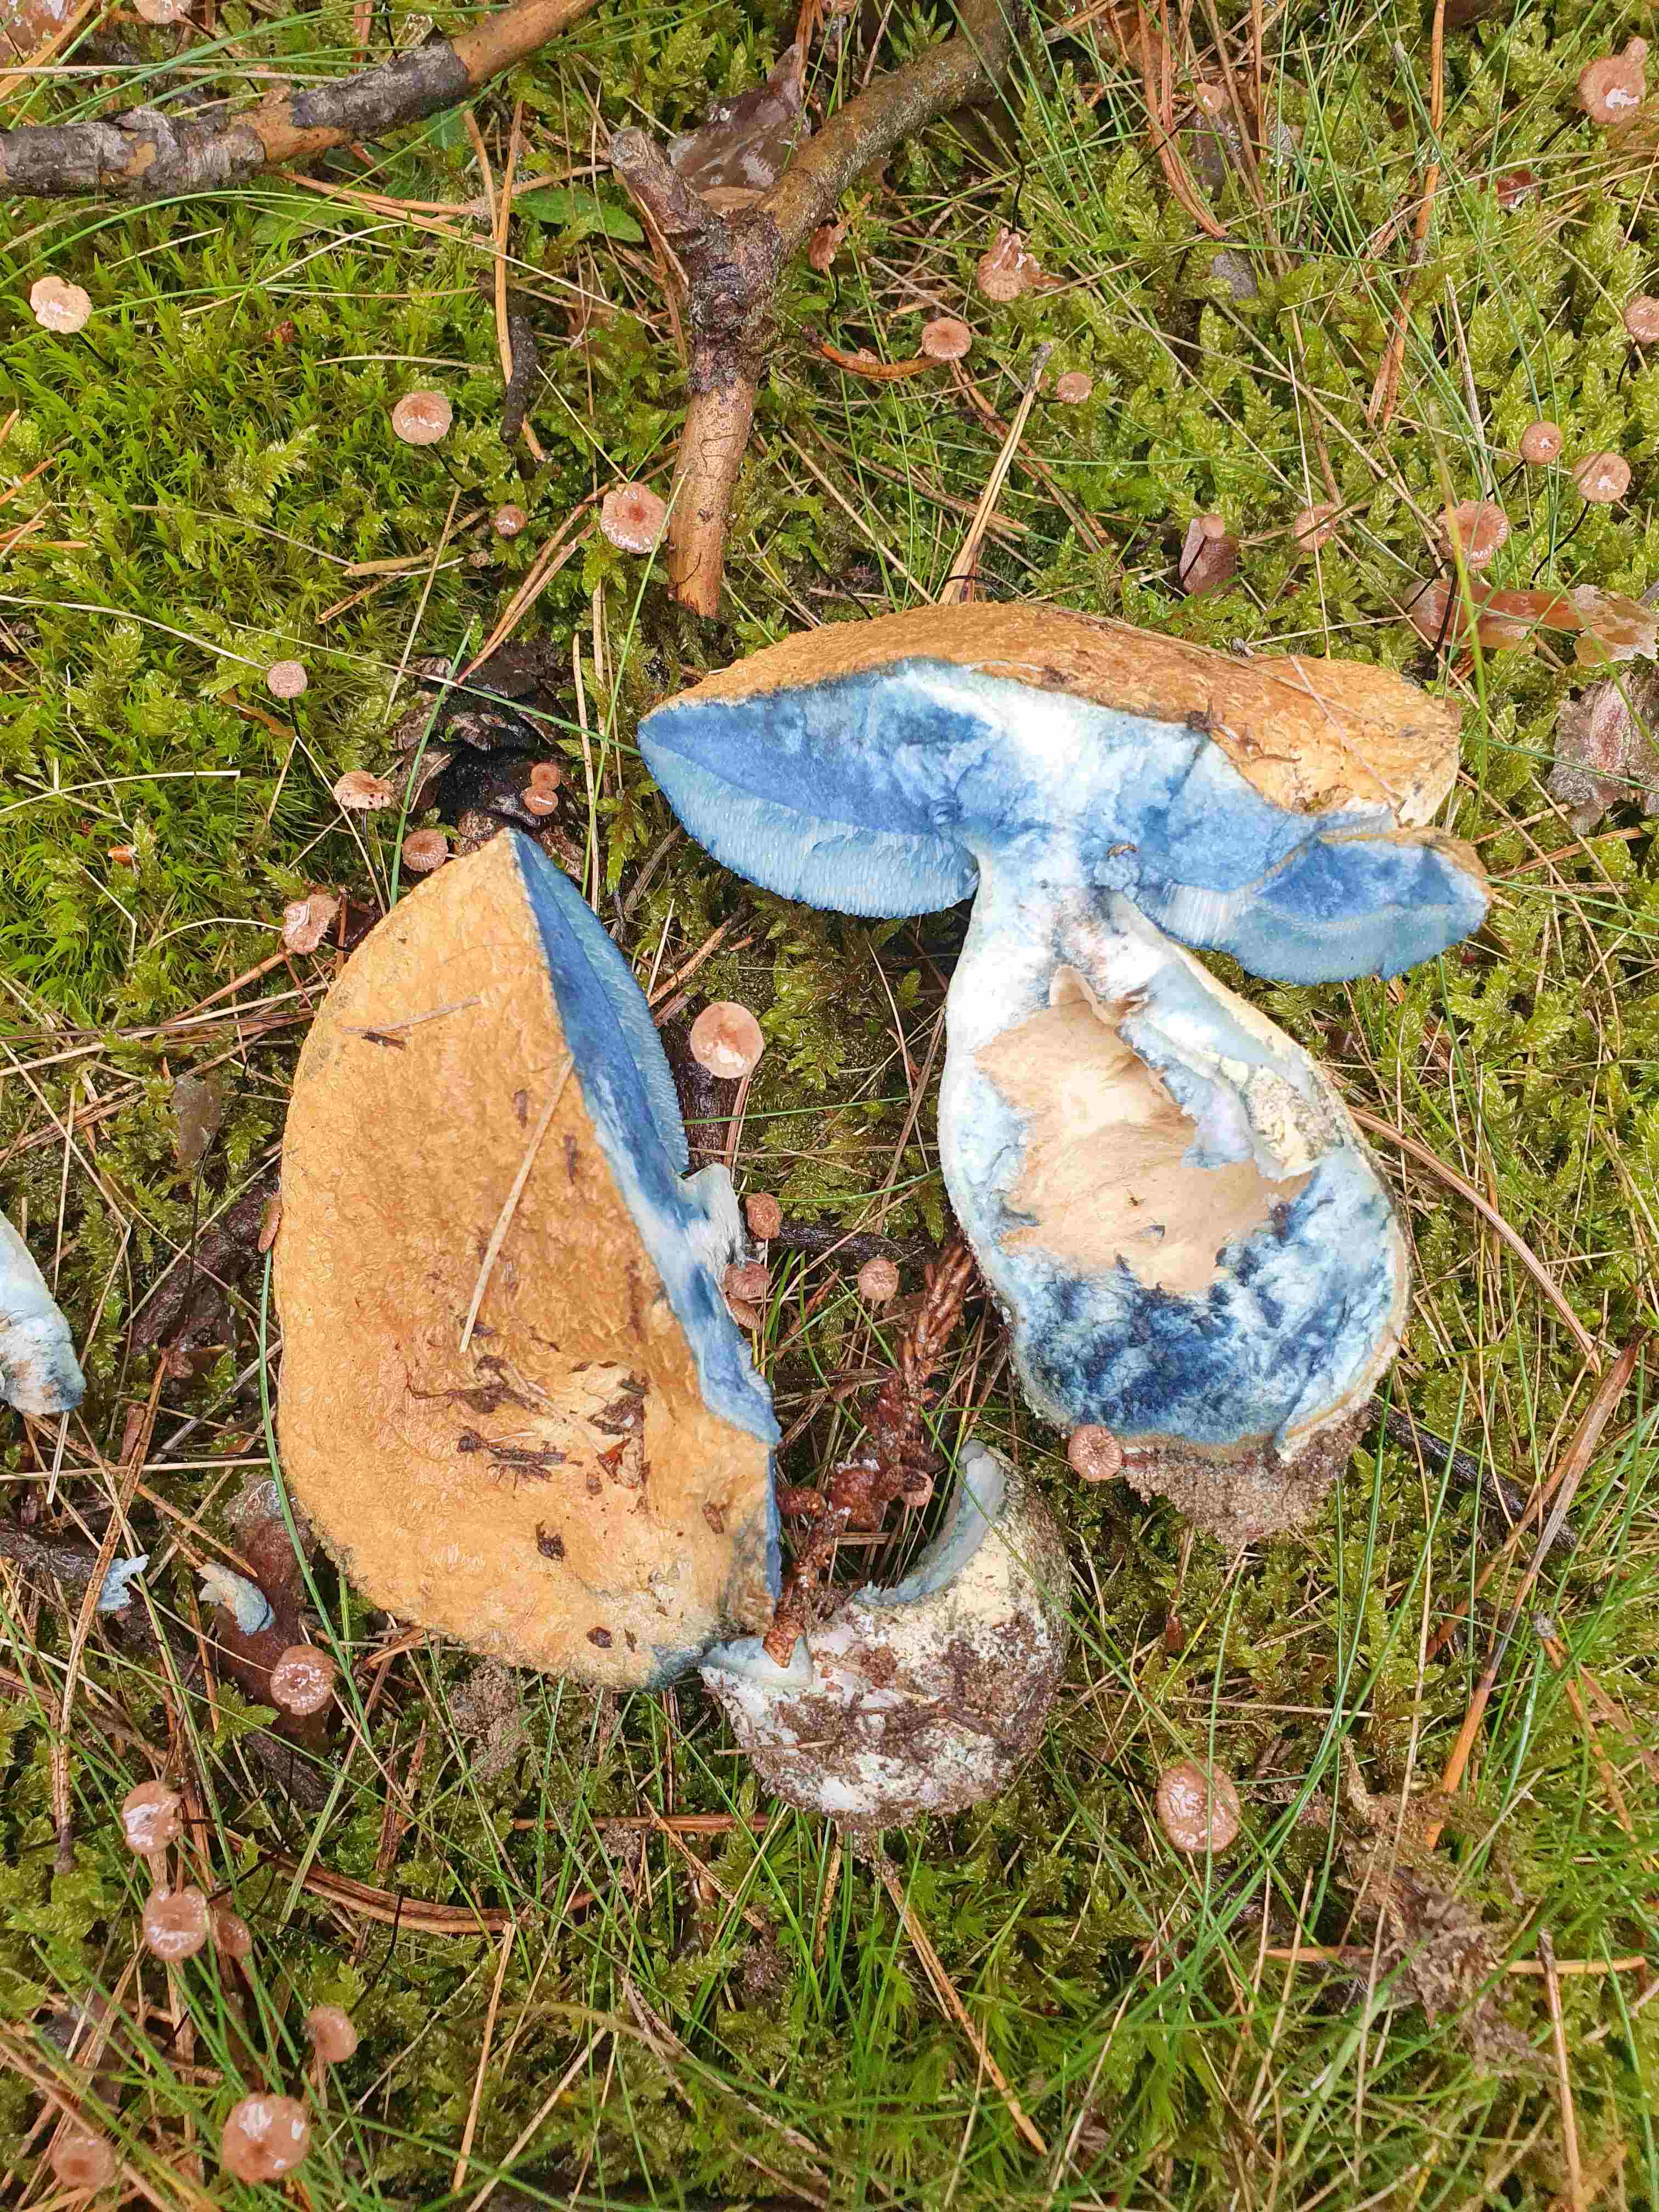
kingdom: Fungi
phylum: Basidiomycota
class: Agaricomycetes
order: Boletales
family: Gyroporaceae
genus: Gyroporus
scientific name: Gyroporus cyanescens
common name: blånende kammerrørhat
